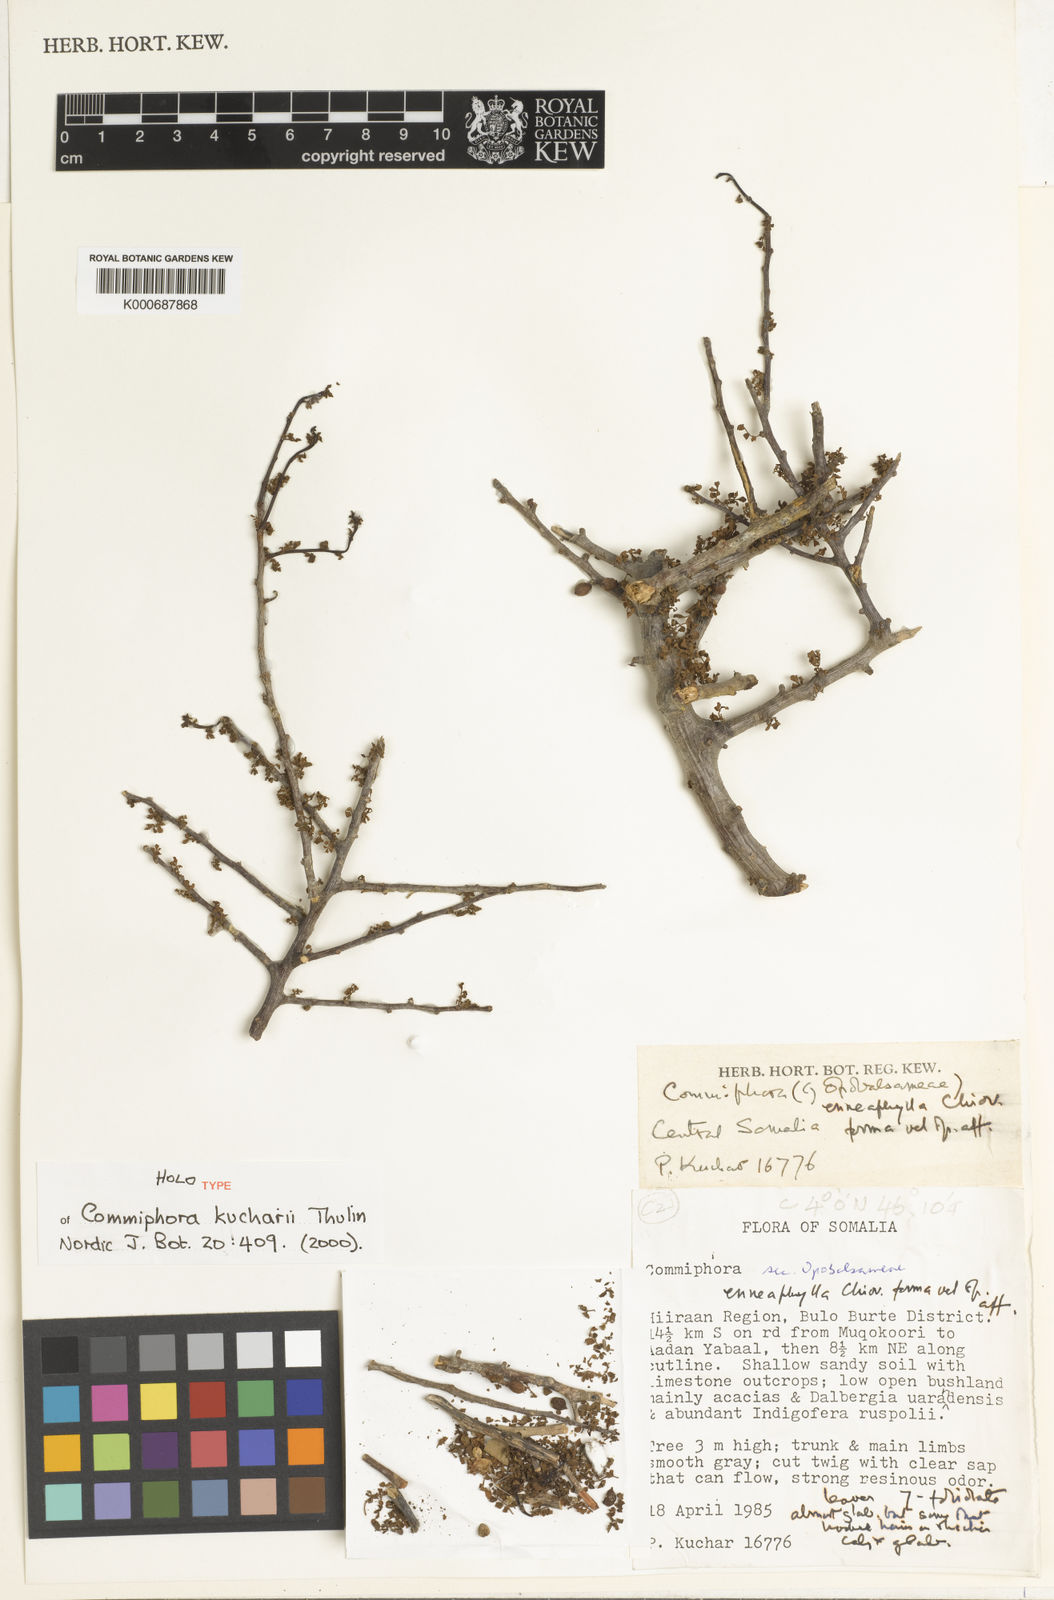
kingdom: Plantae
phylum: Tracheophyta
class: Magnoliopsida
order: Sapindales
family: Burseraceae
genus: Commiphora
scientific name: Commiphora kucharii
